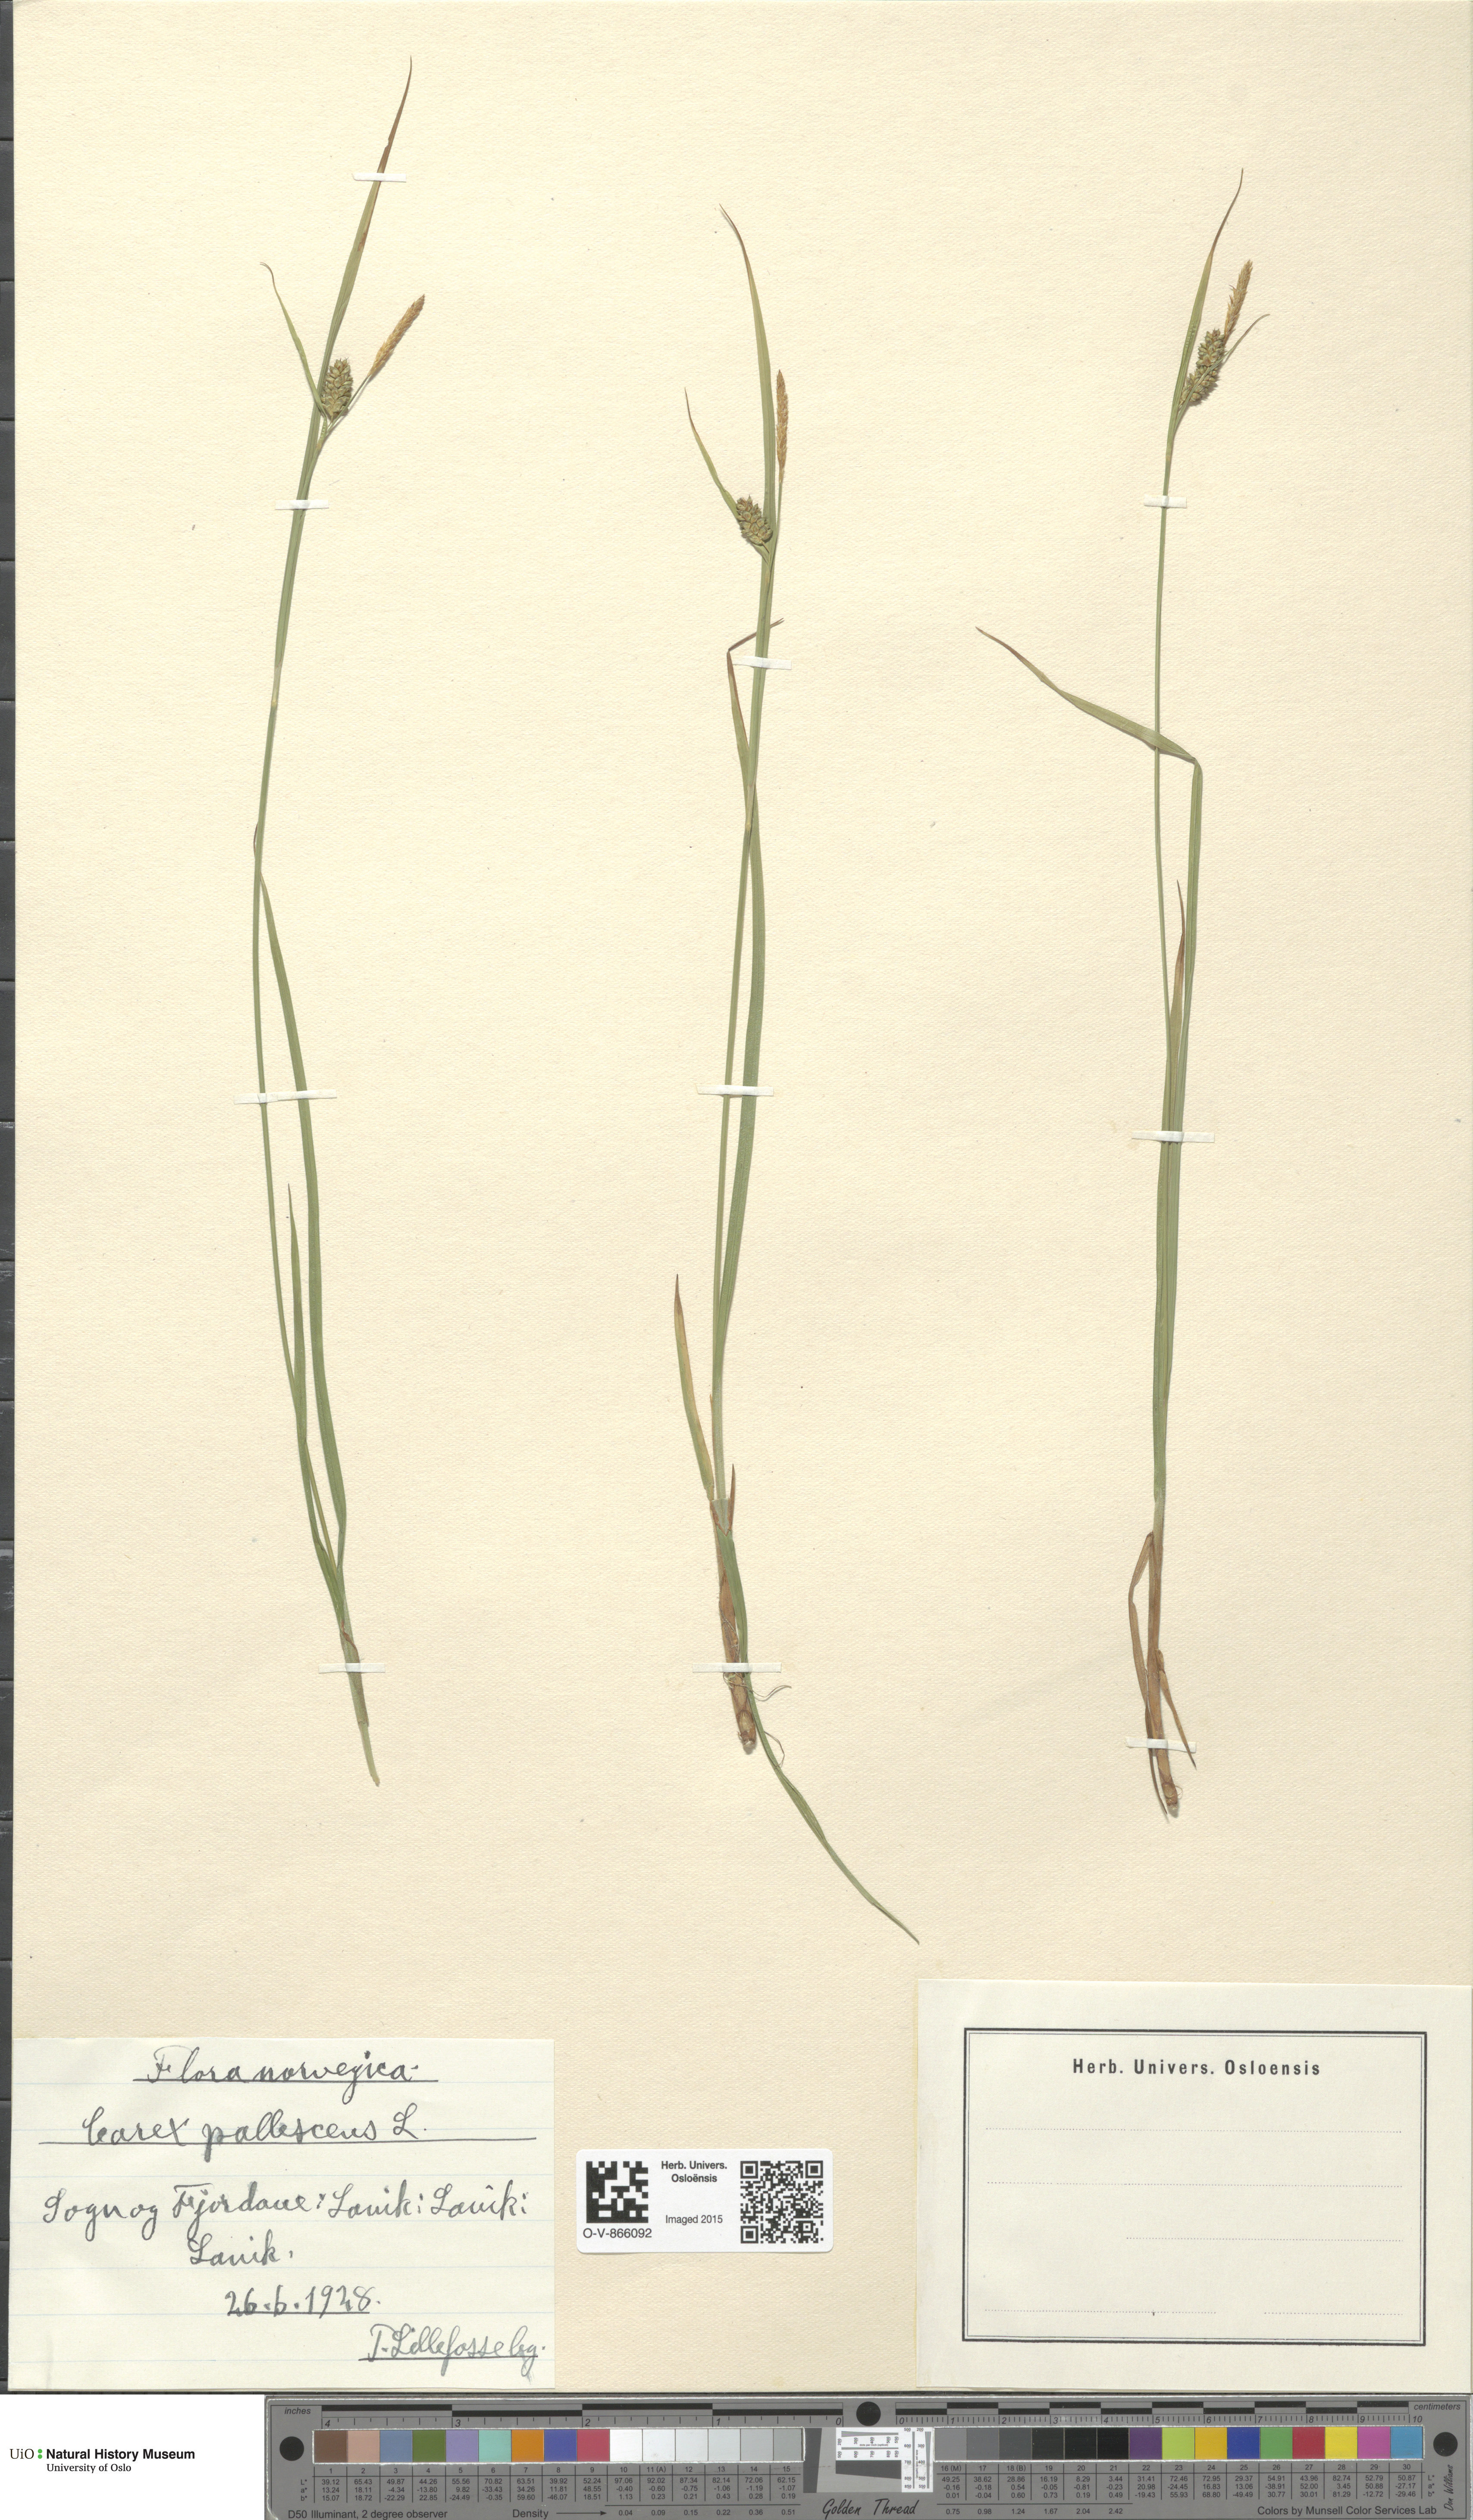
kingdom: Plantae
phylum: Tracheophyta
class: Liliopsida
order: Poales
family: Cyperaceae
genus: Carex
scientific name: Carex pallescens
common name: Pale sedge
